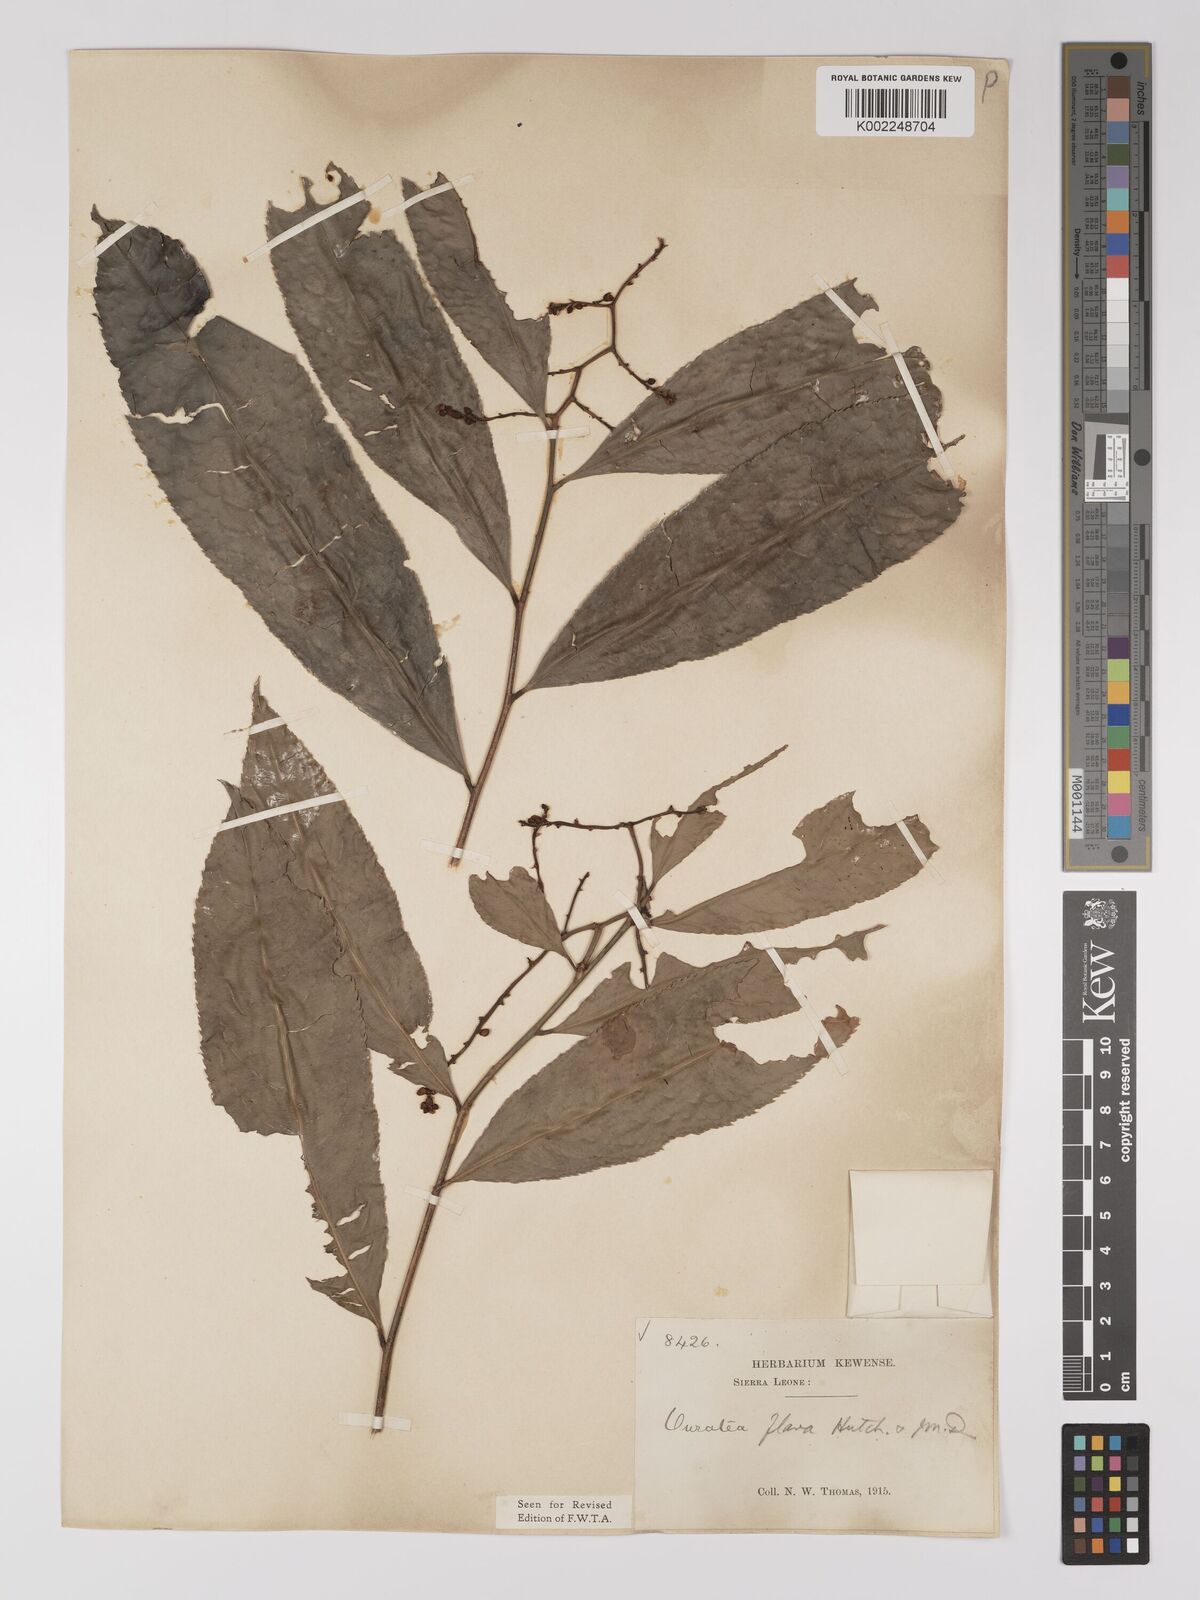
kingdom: Plantae
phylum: Tracheophyta
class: Magnoliopsida
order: Malpighiales
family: Ochnaceae
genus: Campylospermum
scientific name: Campylospermum flavum
